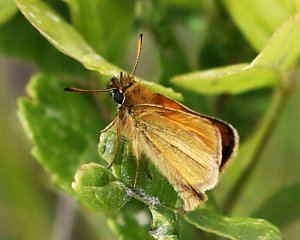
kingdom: Animalia
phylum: Arthropoda
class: Insecta
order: Lepidoptera
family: Hesperiidae
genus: Thymelicus
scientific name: Thymelicus lineola
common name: European Skipper
